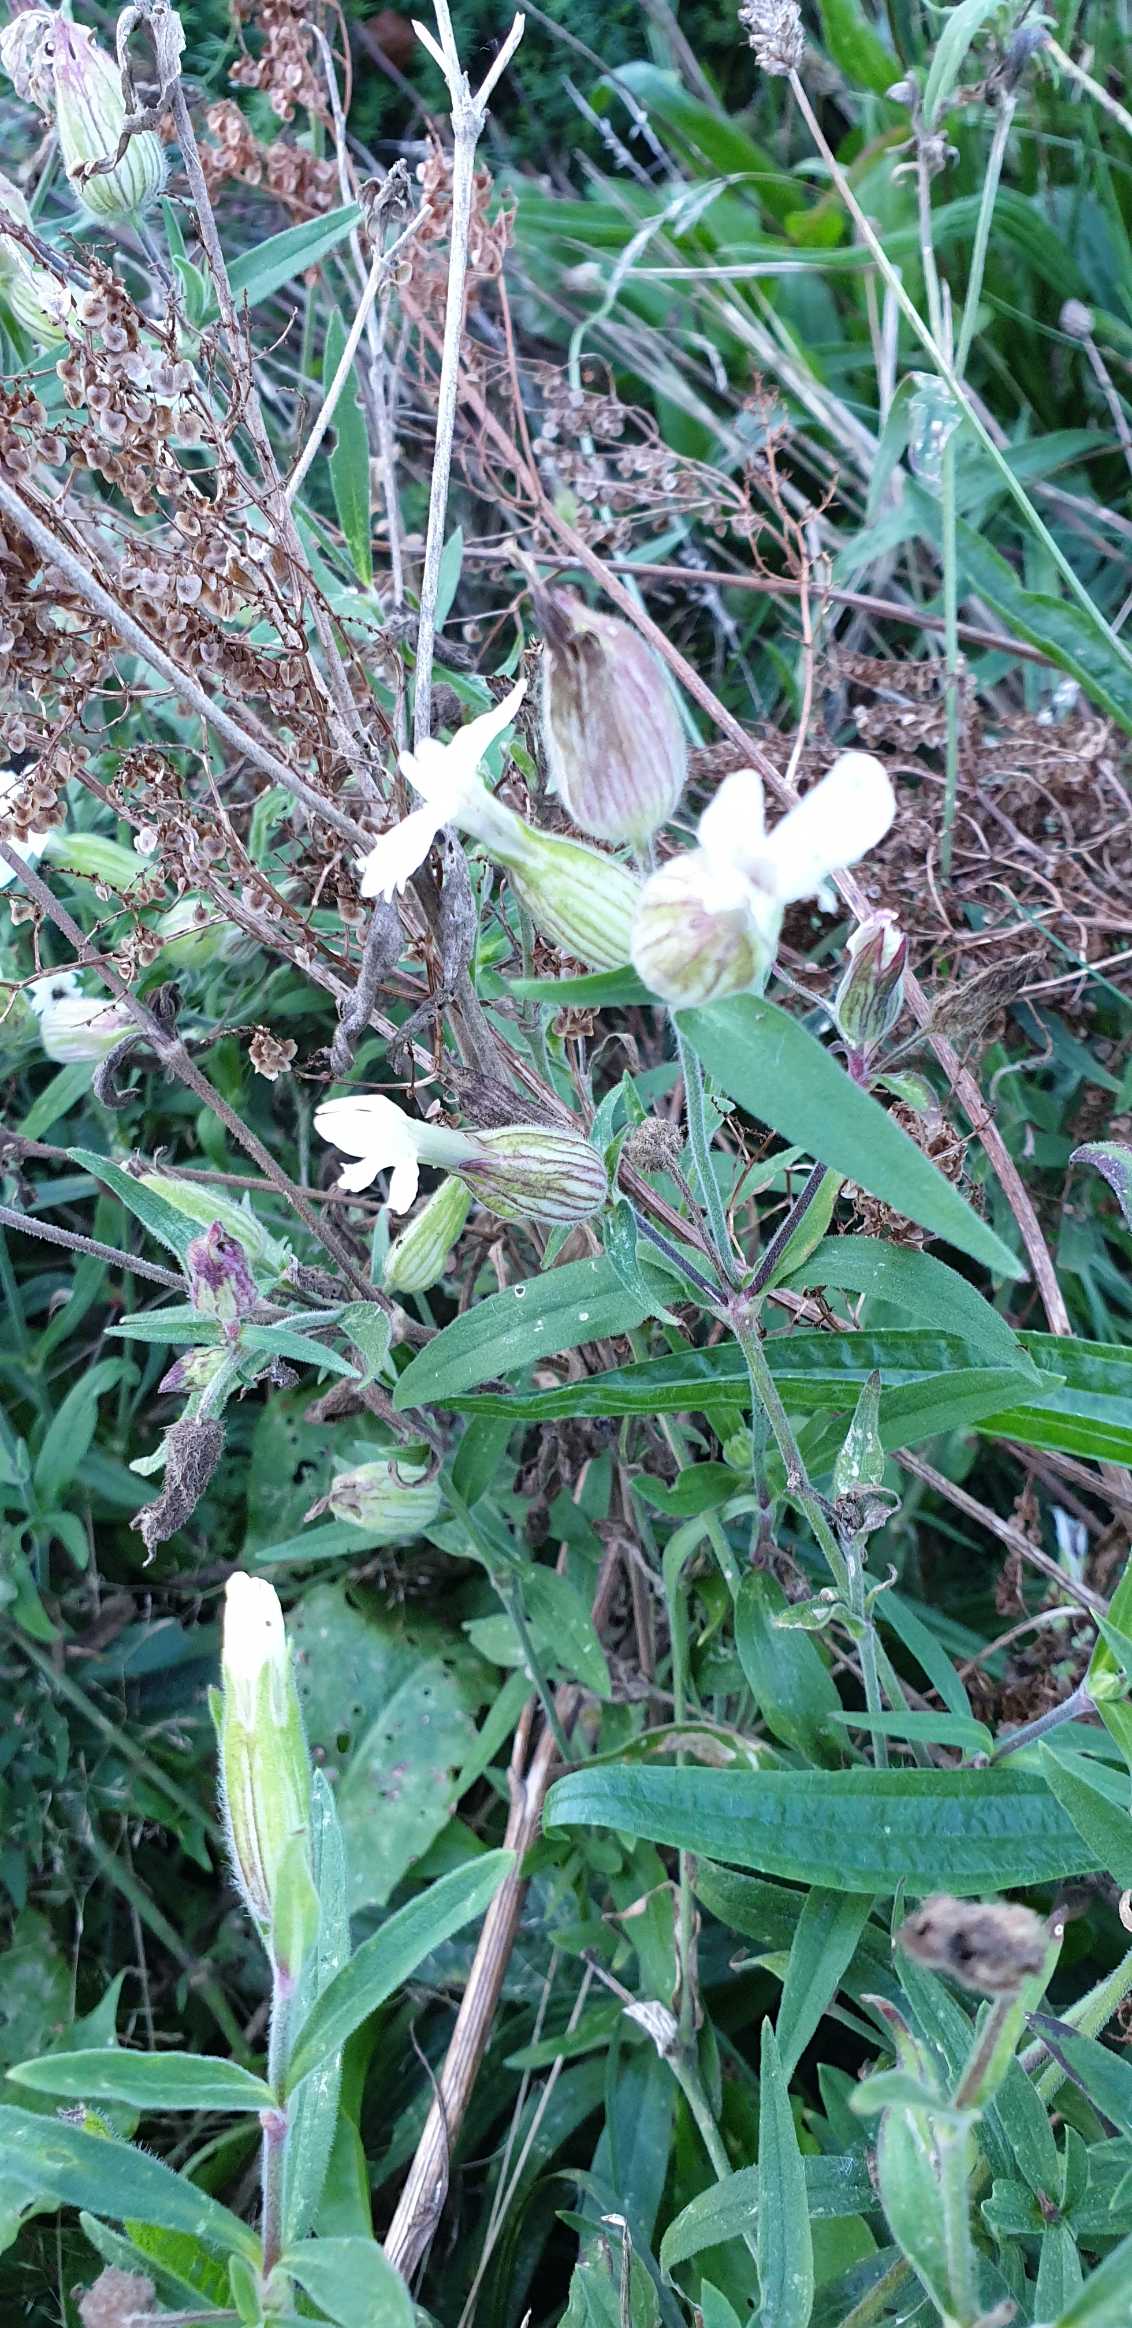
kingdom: Plantae
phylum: Tracheophyta
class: Magnoliopsida
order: Caryophyllales
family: Caryophyllaceae
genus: Silene
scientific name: Silene latifolia
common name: Aftenpragtstjerne
